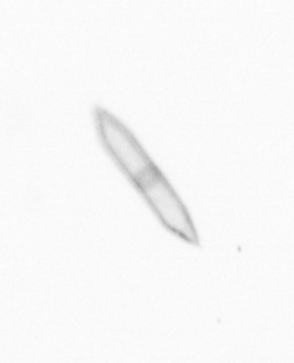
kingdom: Chromista
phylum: Ochrophyta
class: Bacillariophyceae
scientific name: Bacillariophyceae
